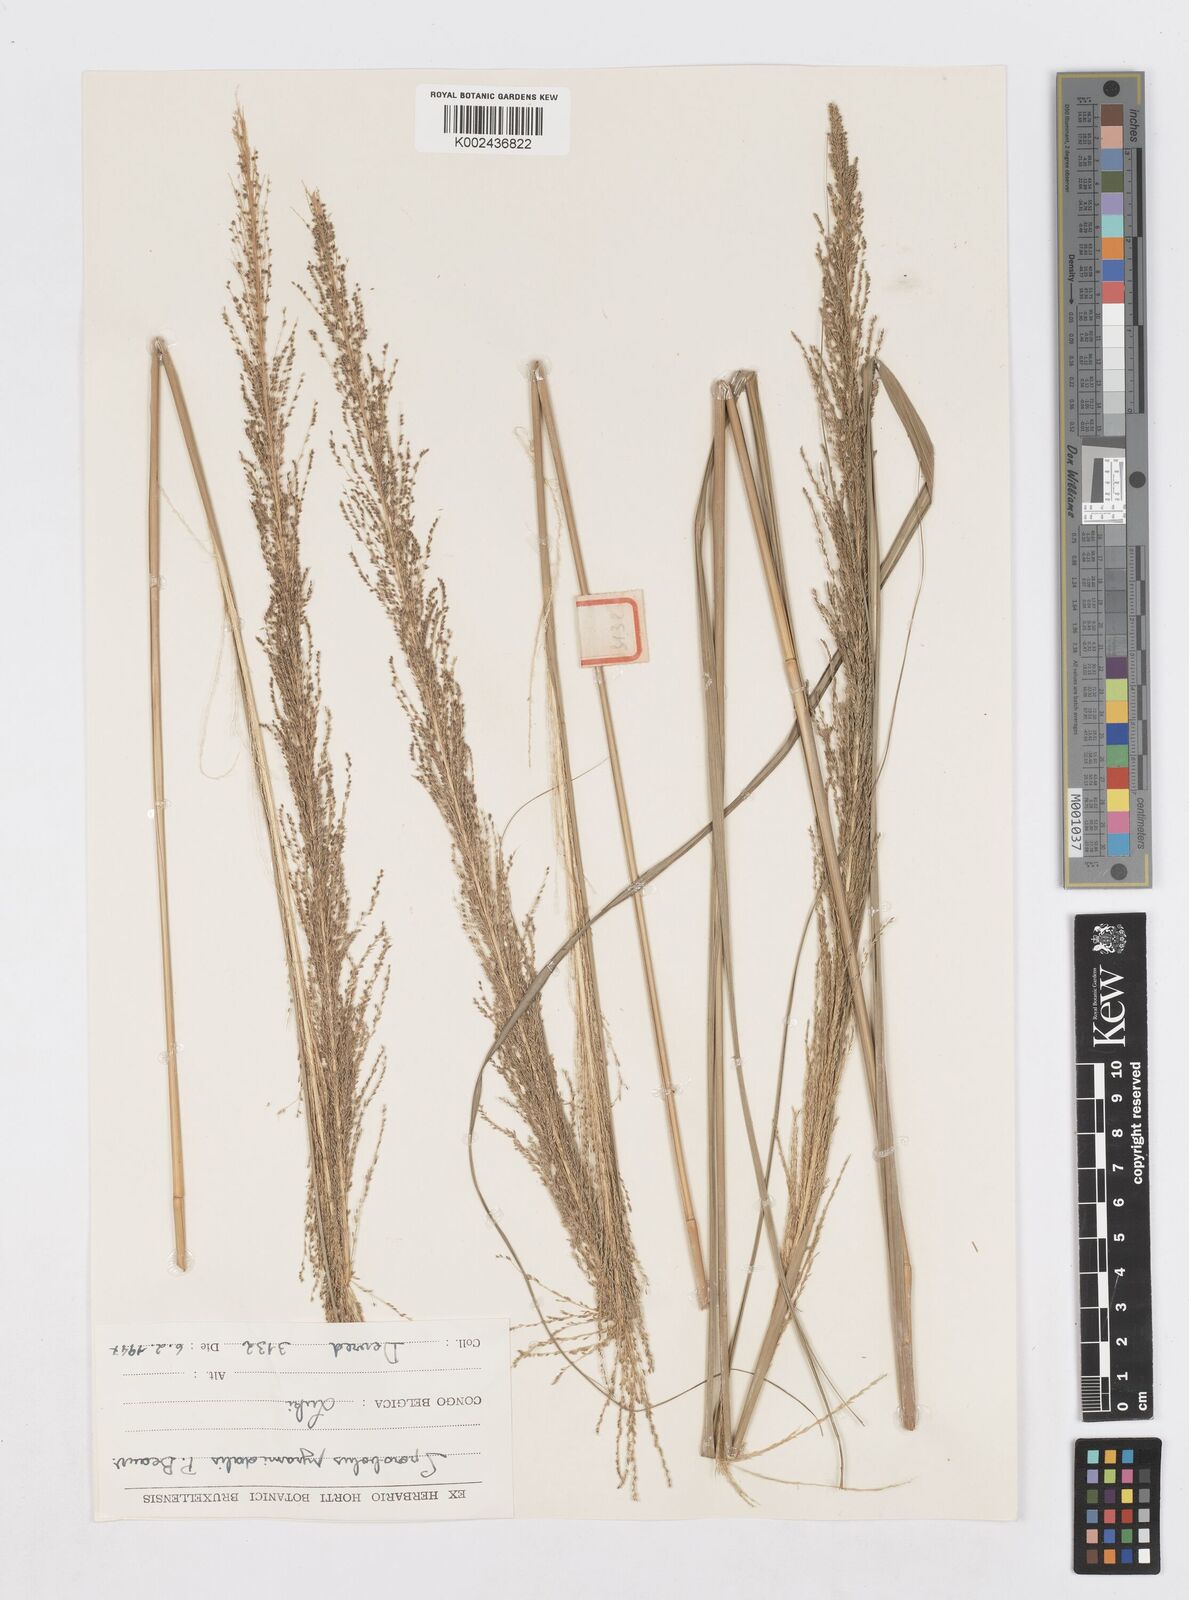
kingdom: Plantae
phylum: Tracheophyta
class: Liliopsida
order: Poales
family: Poaceae
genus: Sporobolus
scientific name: Sporobolus pyramidalis
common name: West indian dropseed
